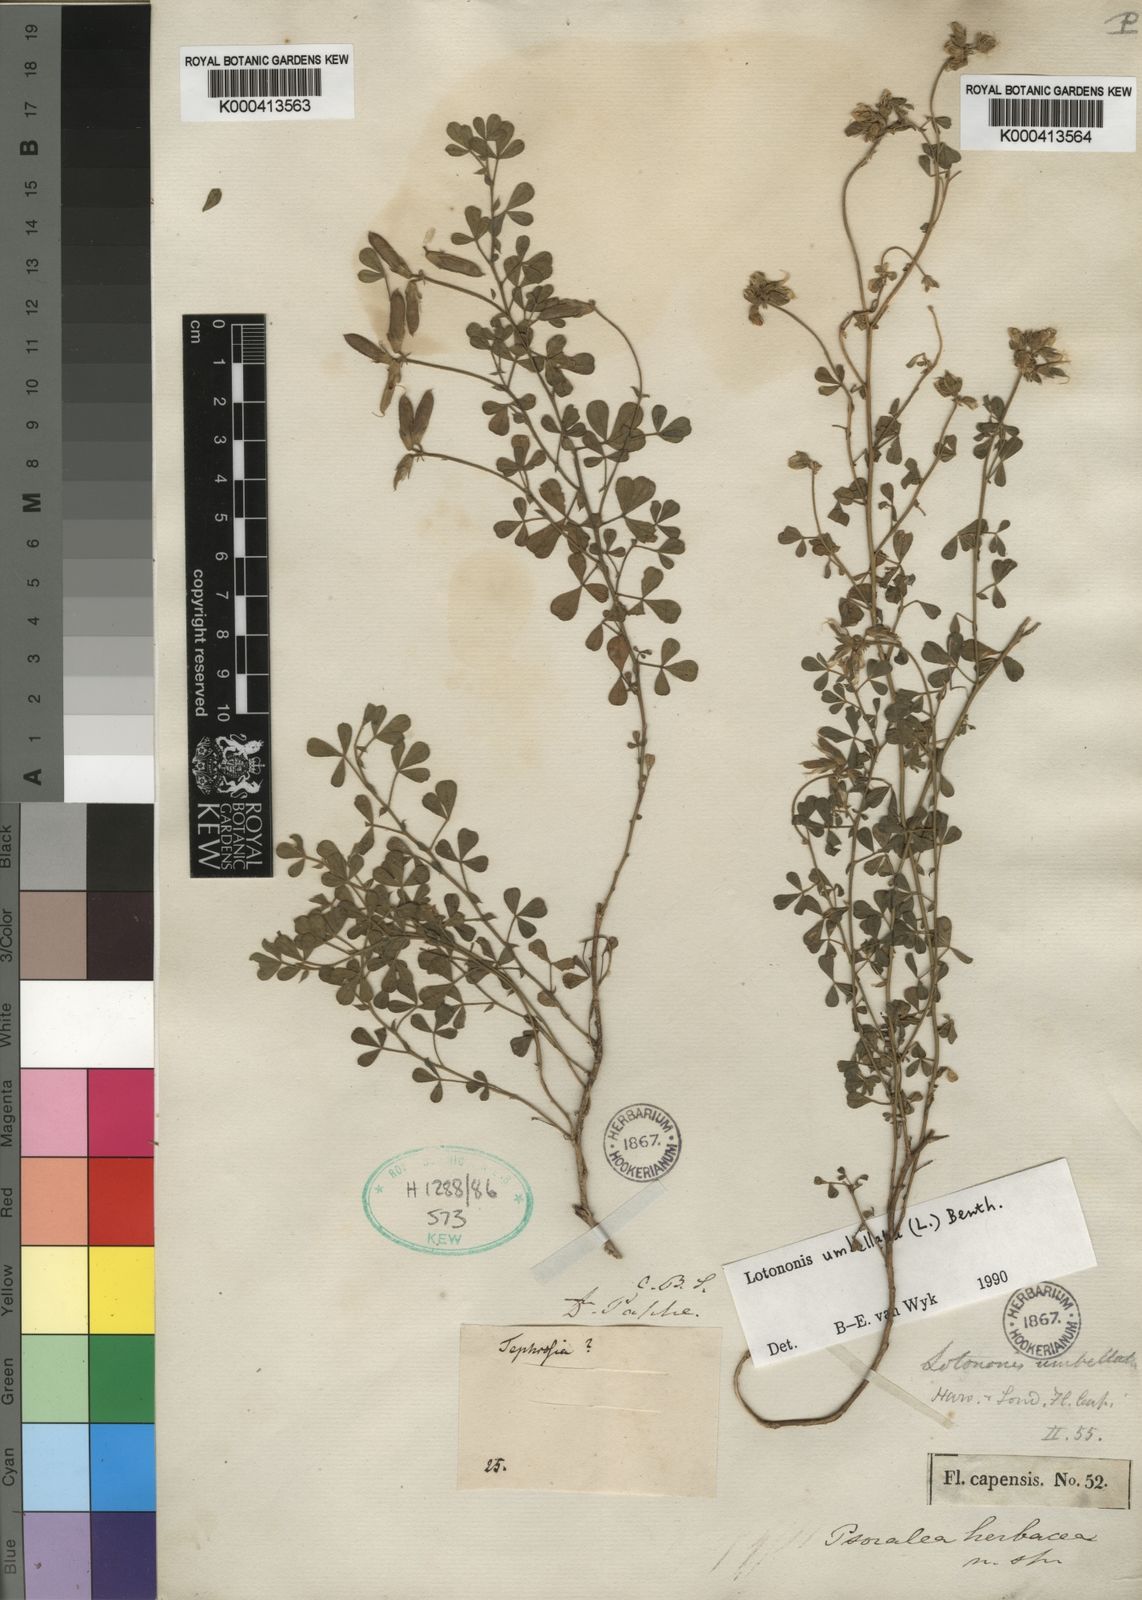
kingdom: Plantae
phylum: Tracheophyta
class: Magnoliopsida
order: Fabales
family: Fabaceae
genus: Lotononis
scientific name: Lotononis umbellata
